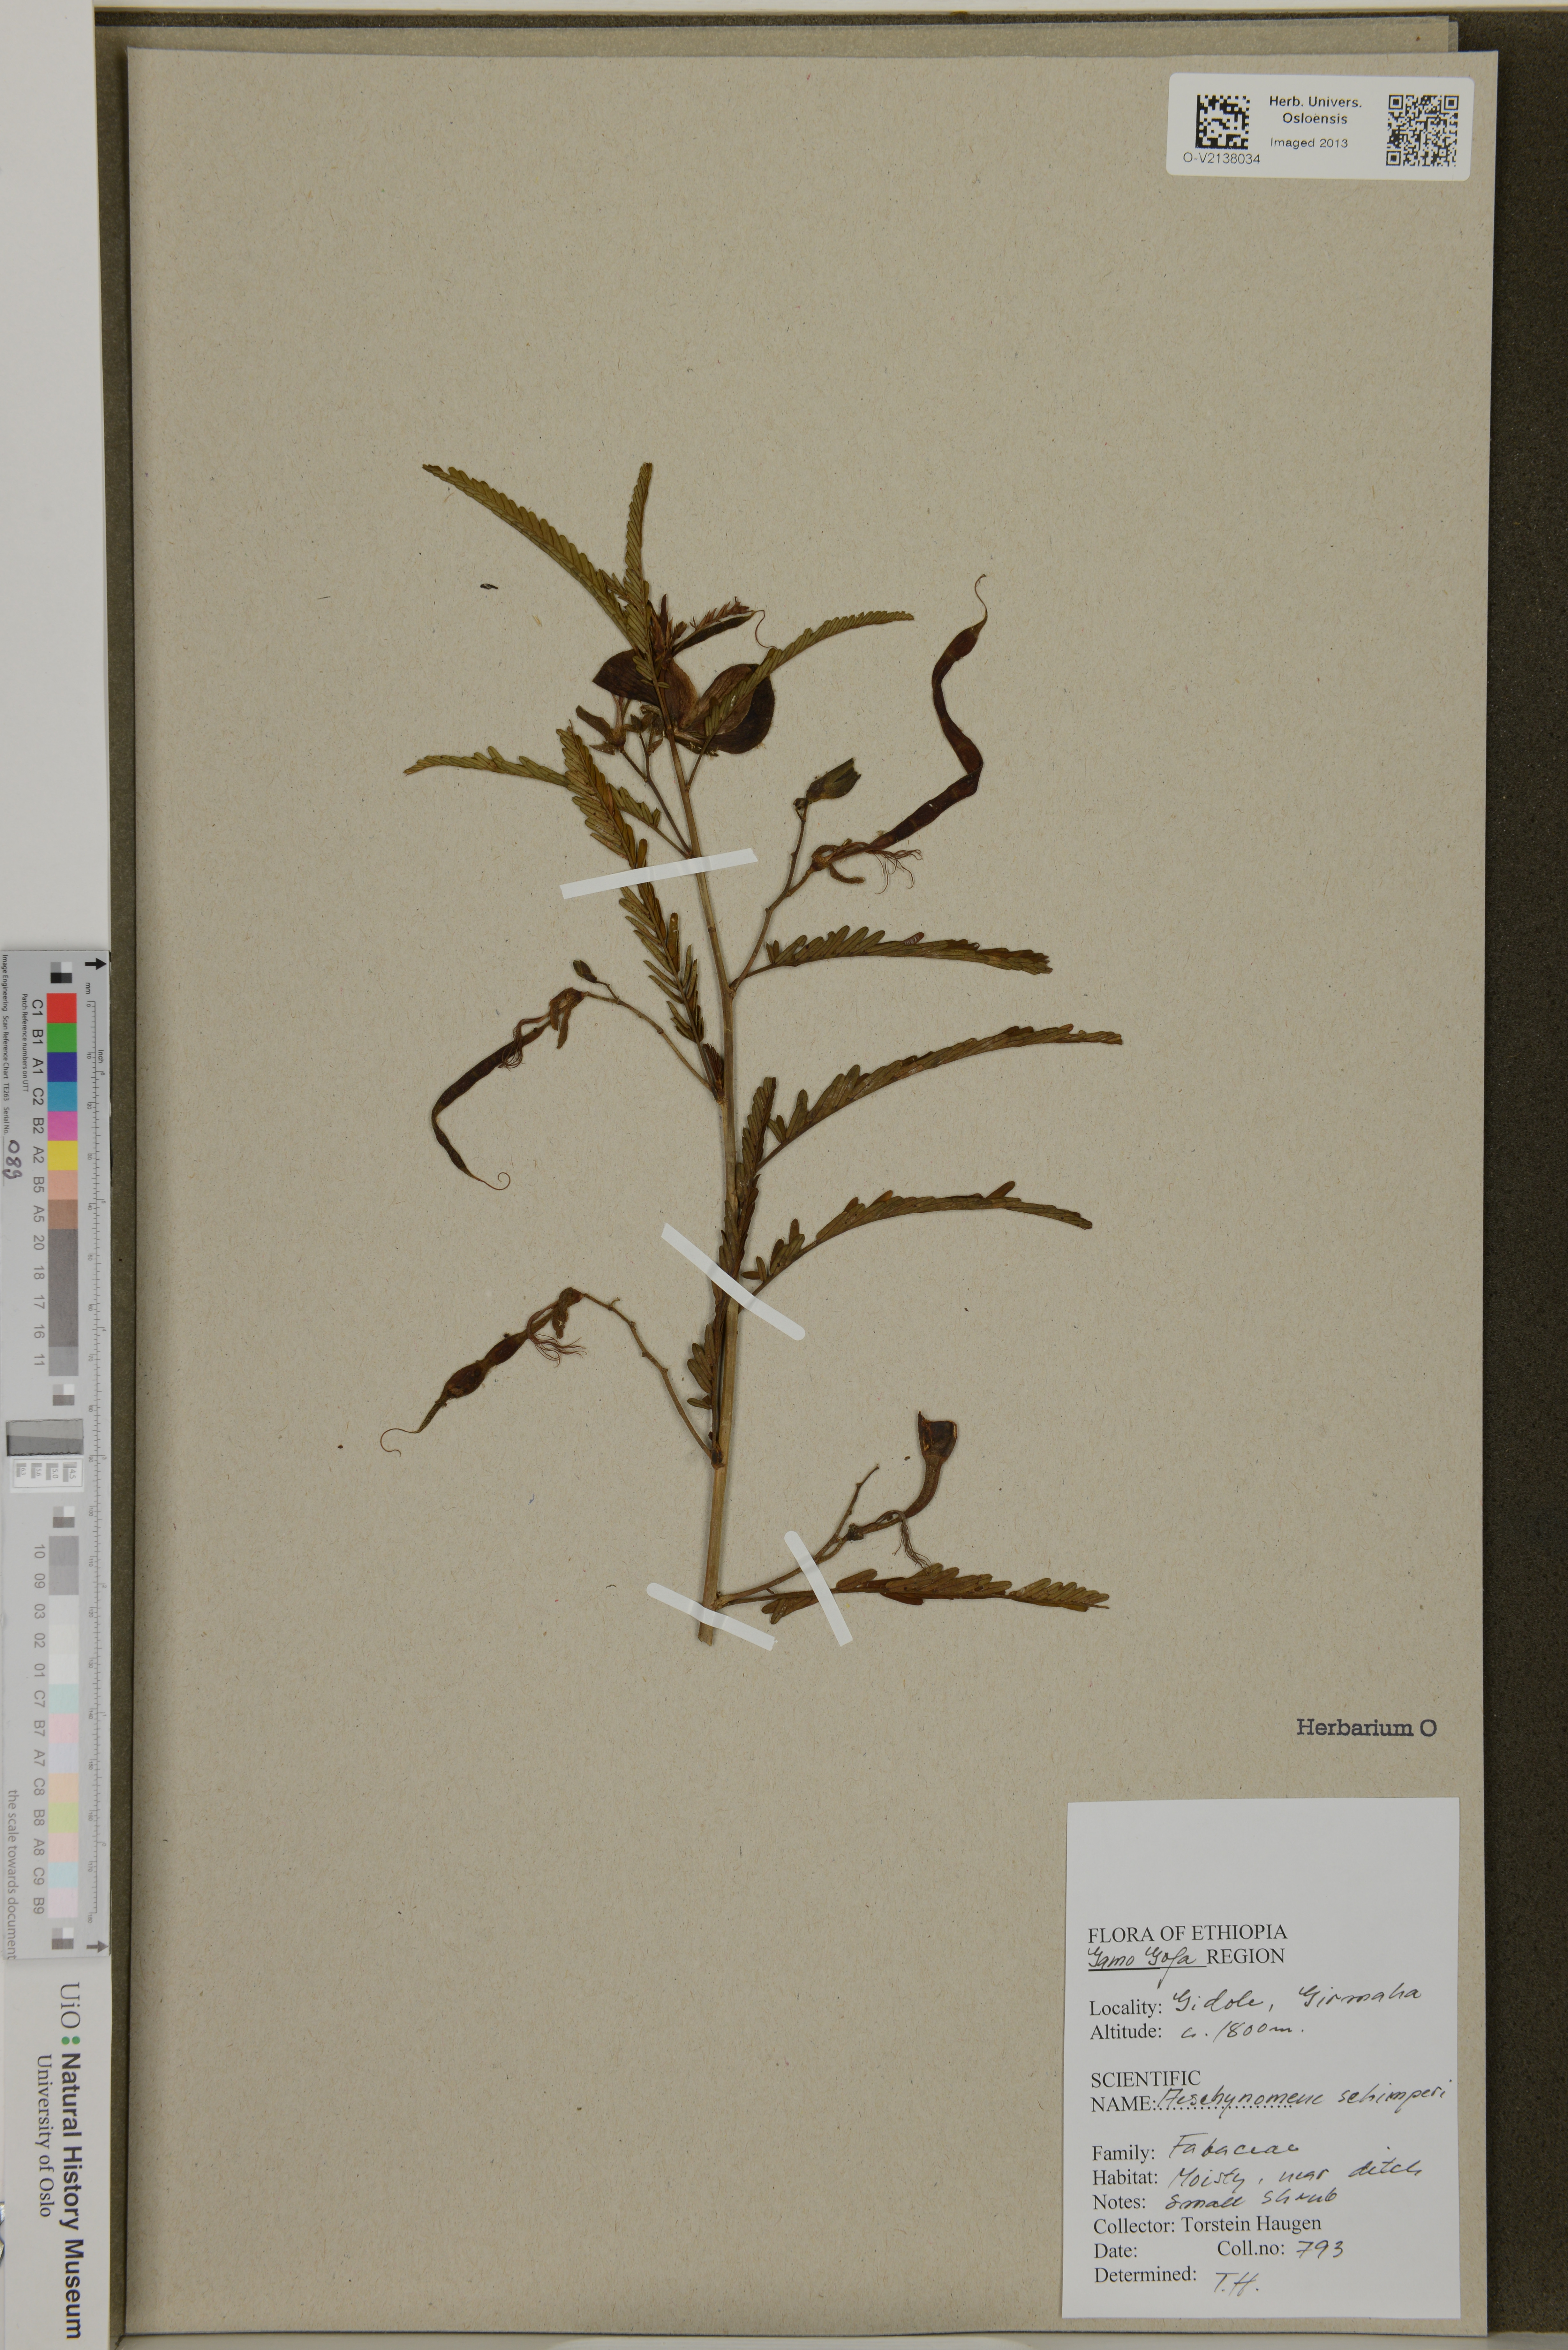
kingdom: Plantae
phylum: Tracheophyta
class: Magnoliopsida
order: Fabales
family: Fabaceae
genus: Aeschynomene
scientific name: Aeschynomene schimperi
